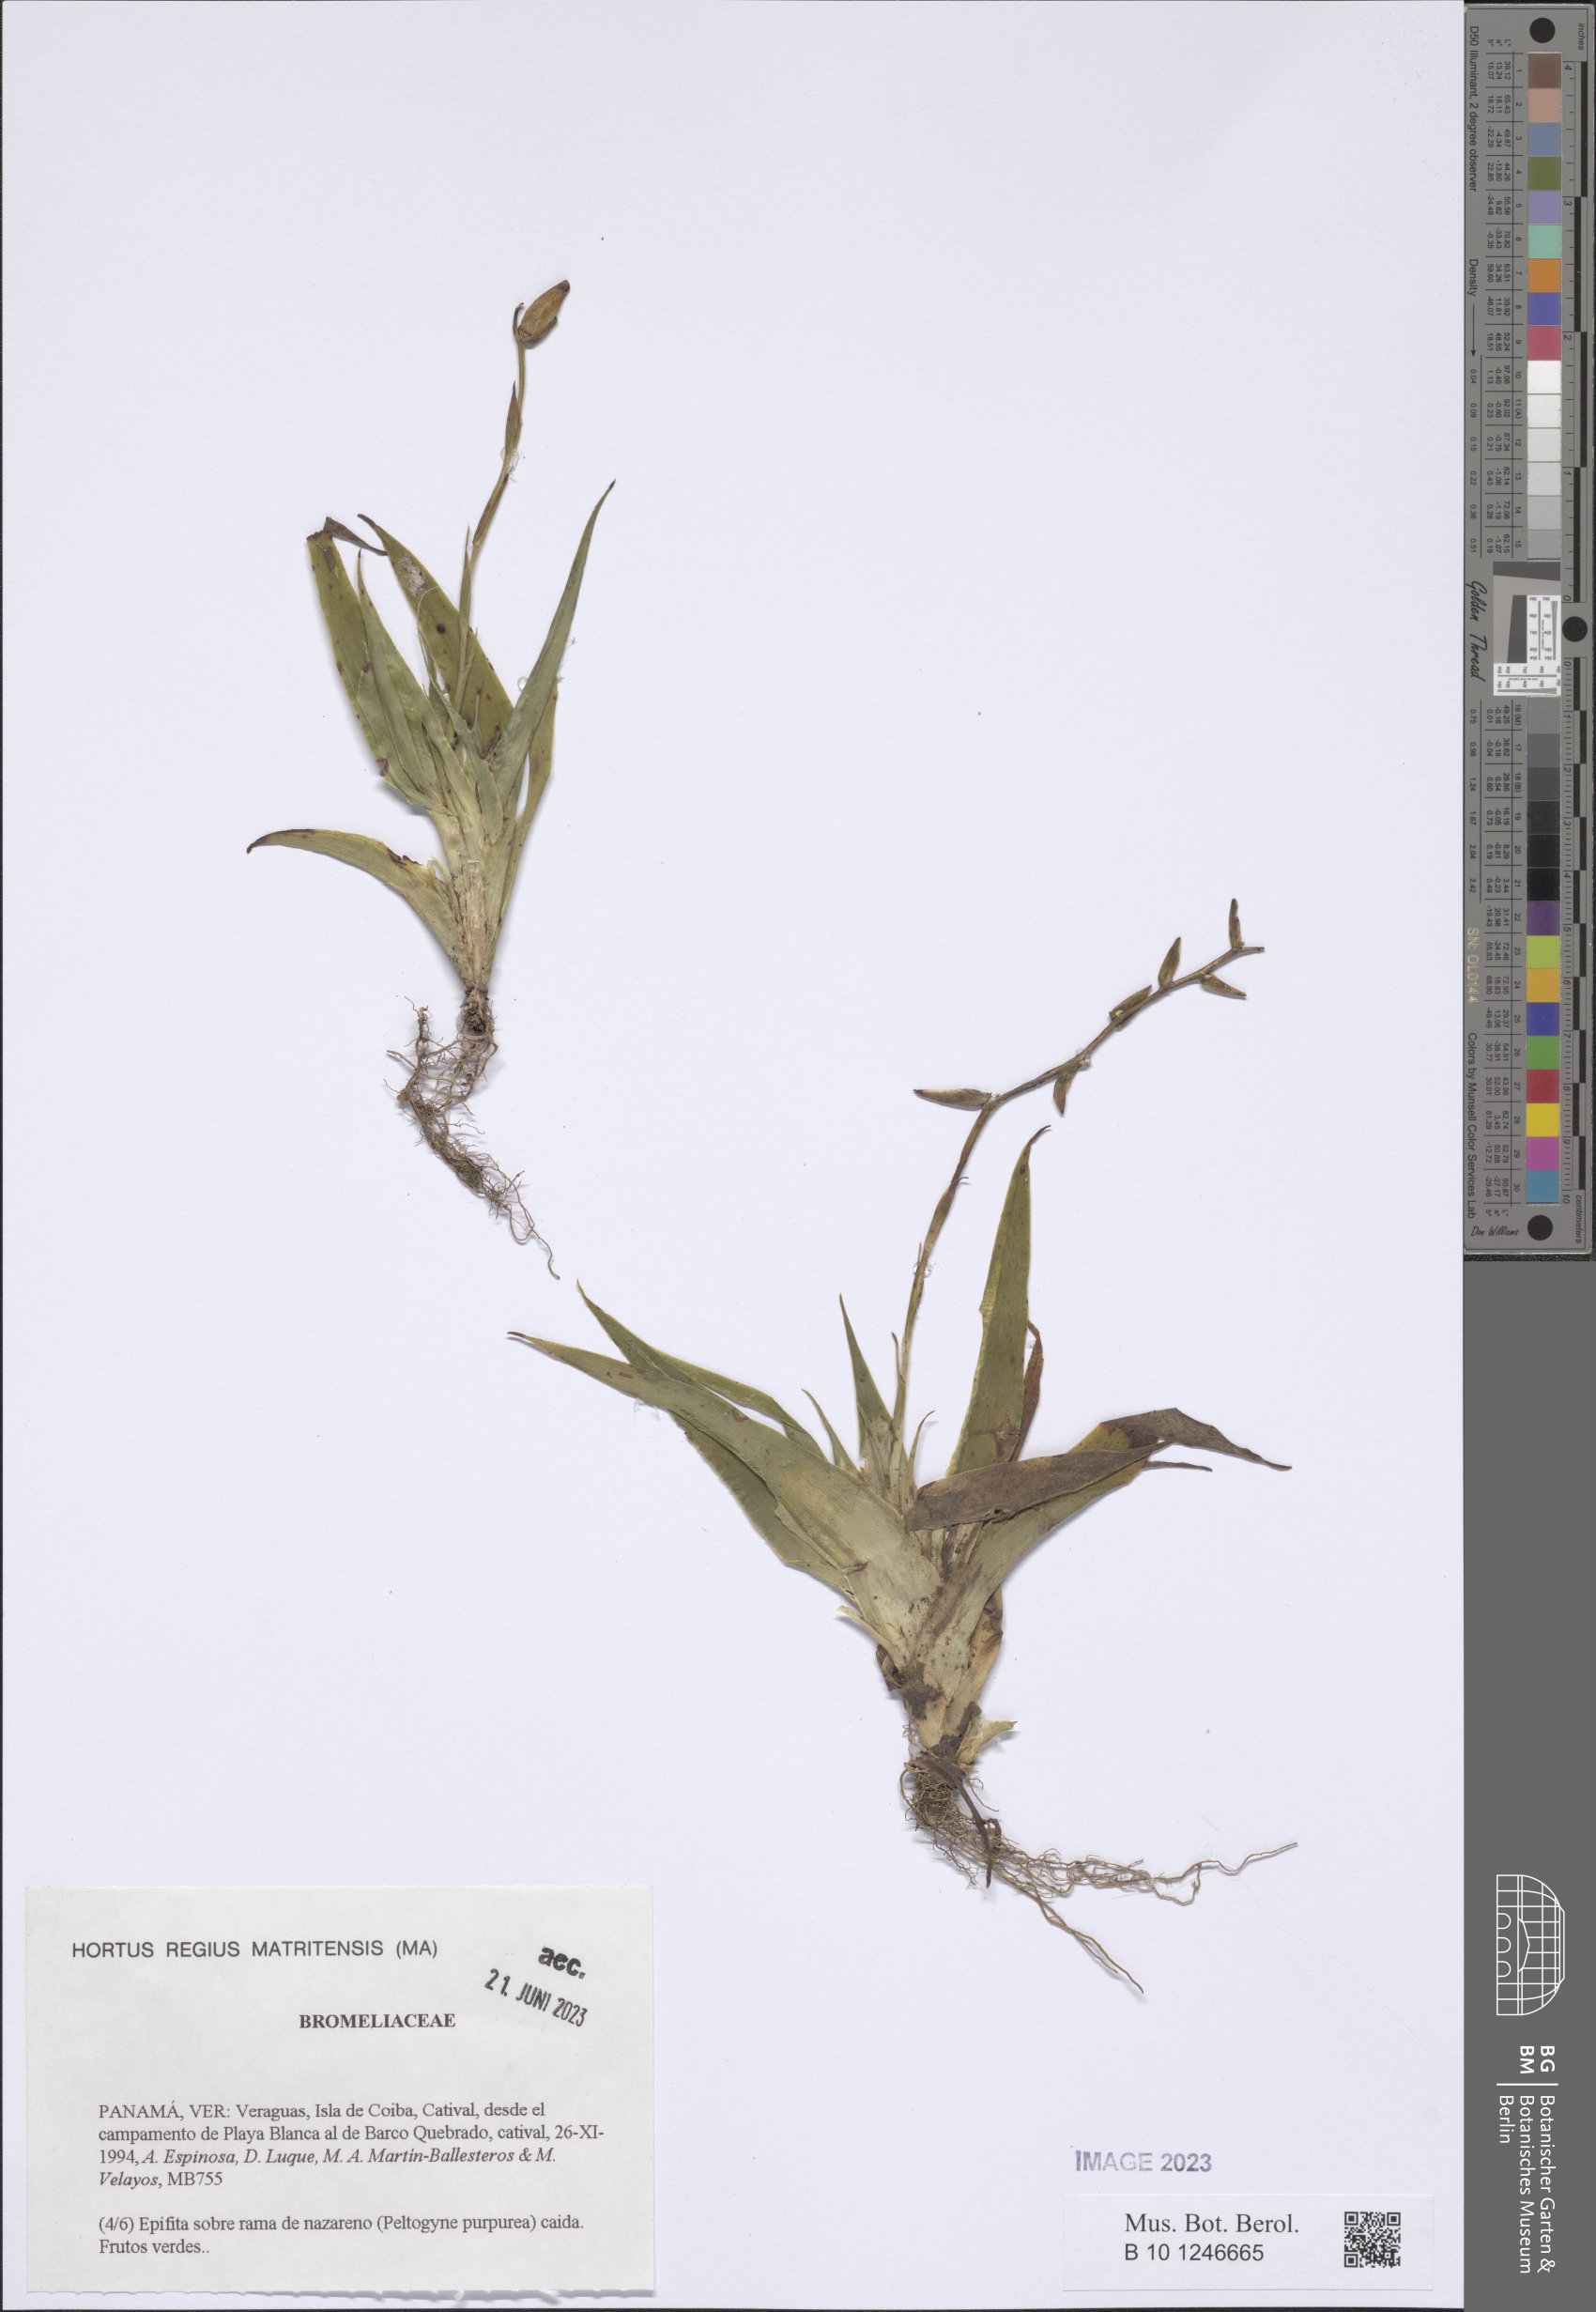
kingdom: Plantae
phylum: Tracheophyta
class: Liliopsida
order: Poales
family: Bromeliaceae
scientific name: Bromeliaceae
